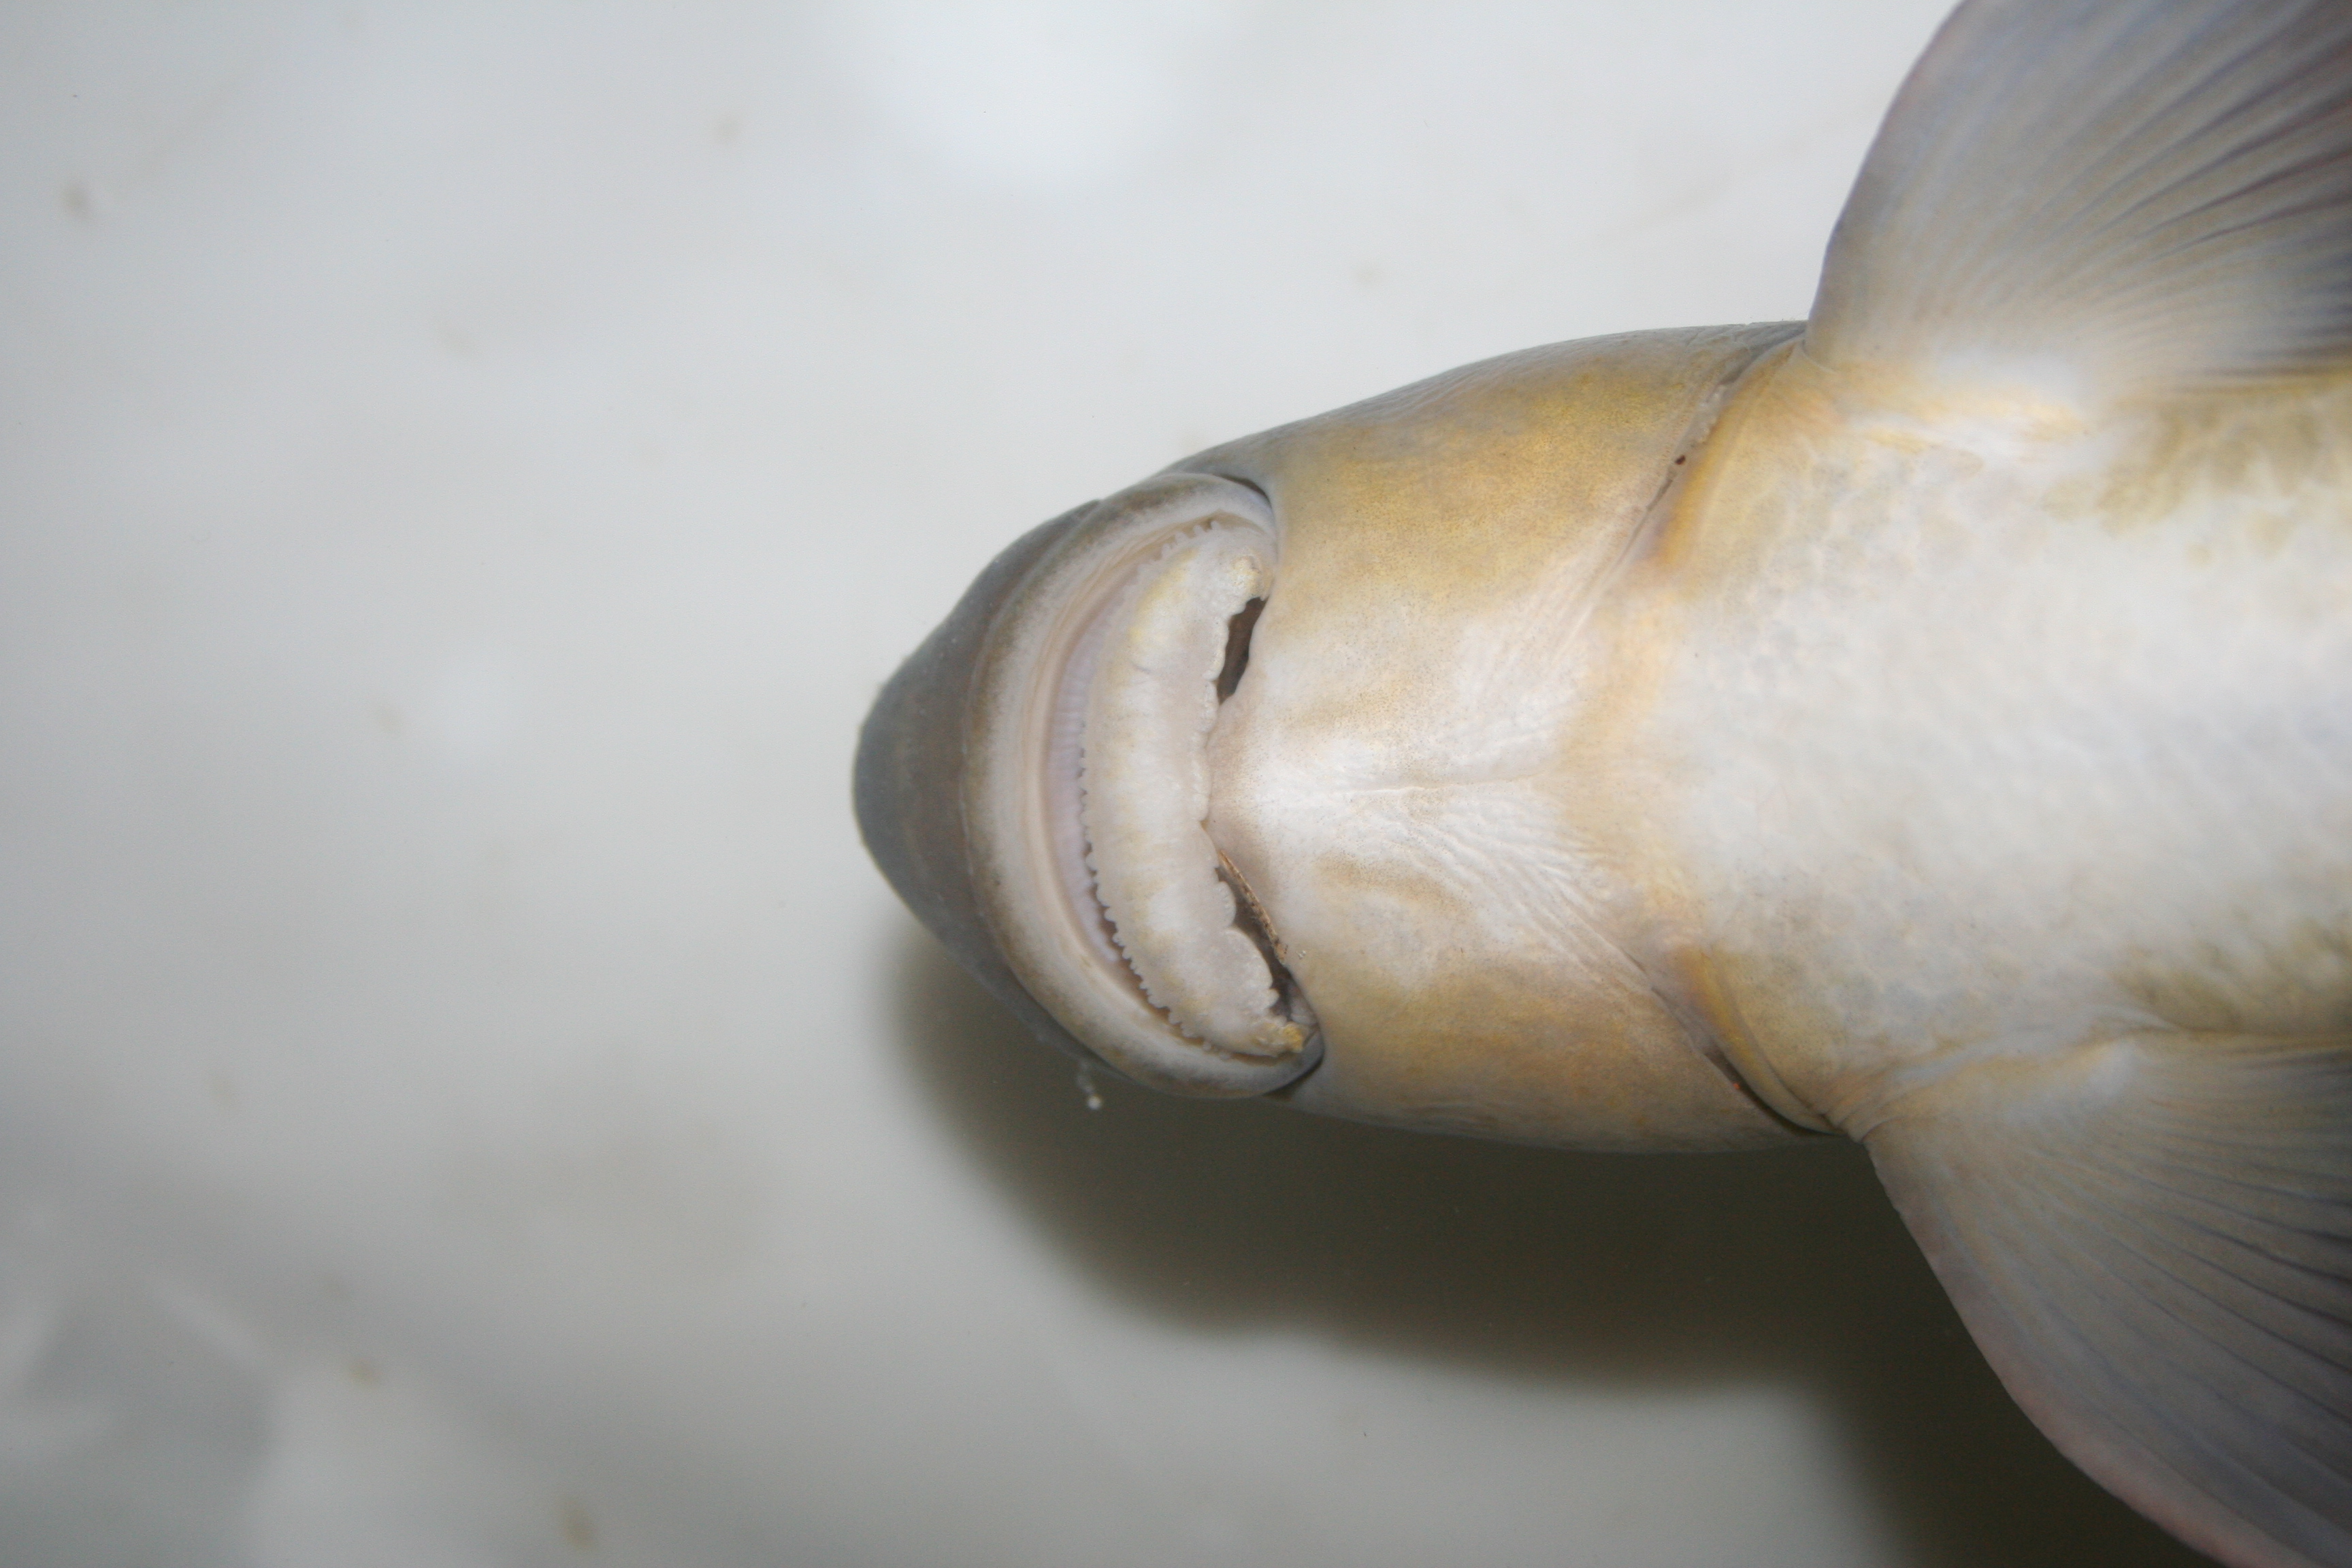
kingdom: Animalia
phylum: Chordata
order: Cypriniformes
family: Cyprinidae
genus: Labeo
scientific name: Labeo annectens
